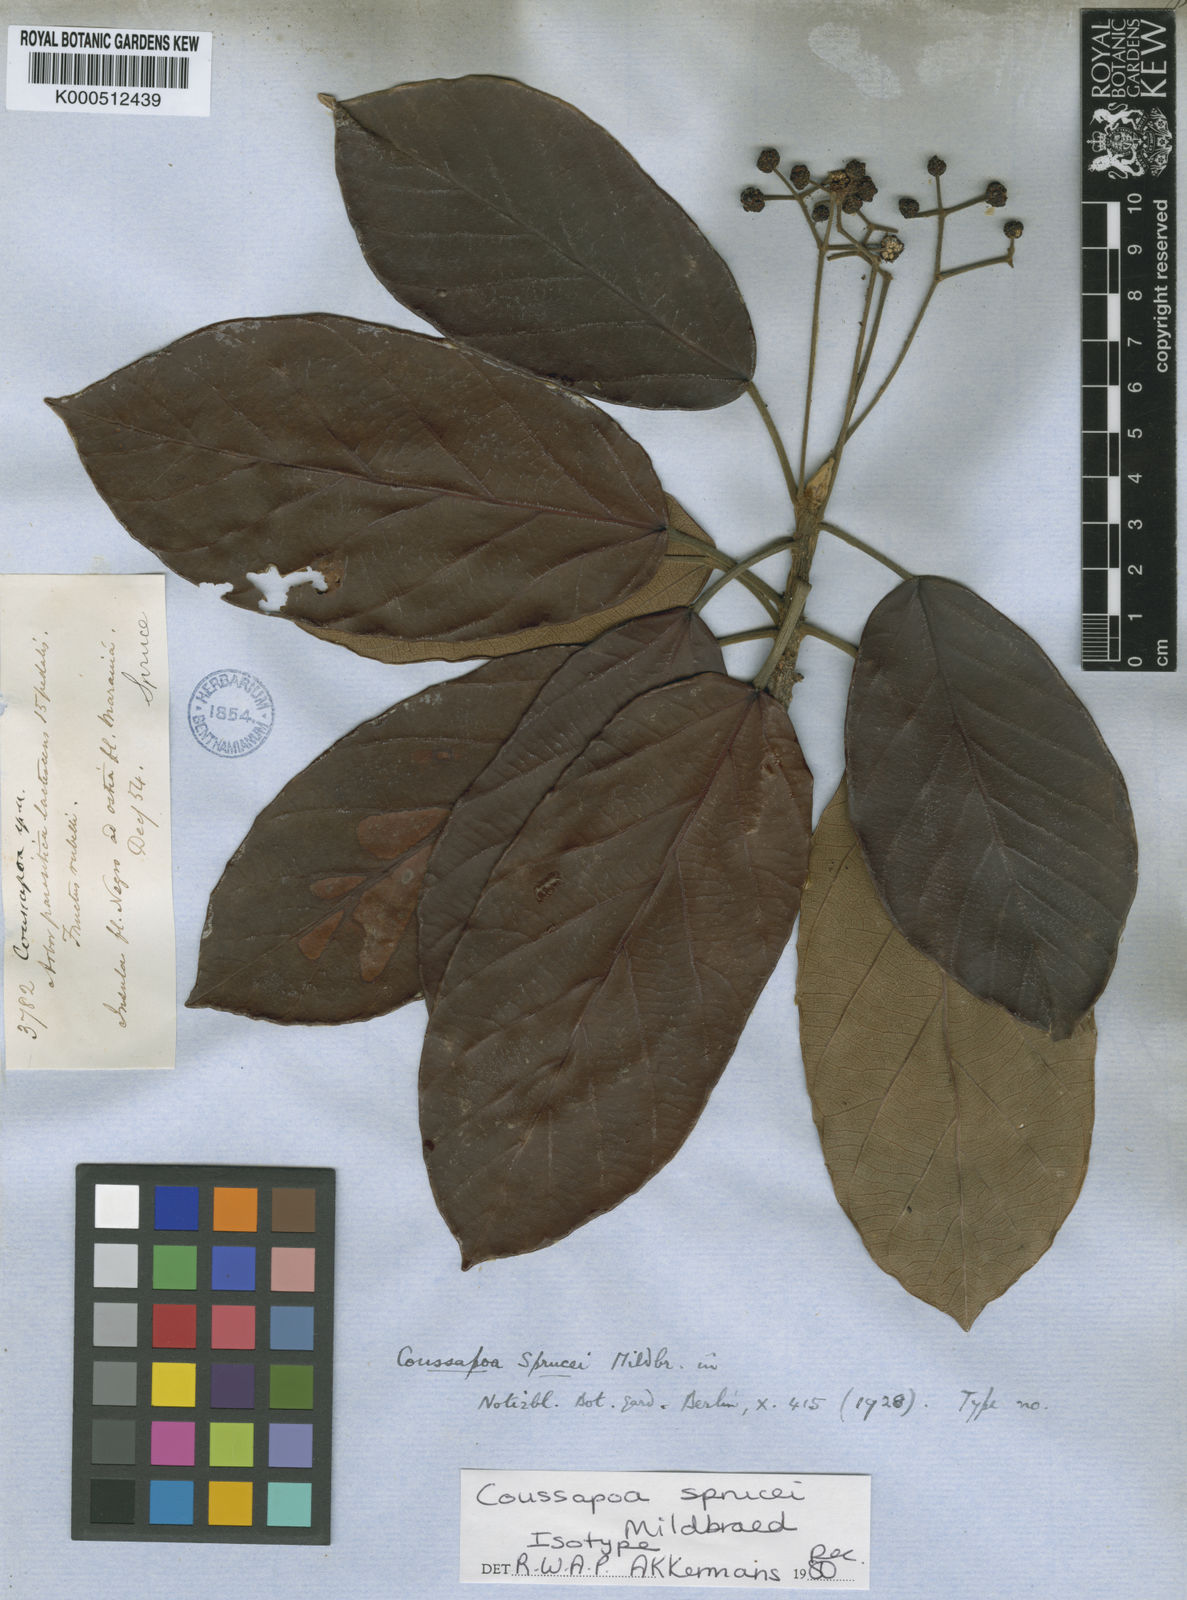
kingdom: Plantae
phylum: Tracheophyta
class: Magnoliopsida
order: Rosales
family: Urticaceae
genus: Coussapoa
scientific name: Coussapoa sprucei
